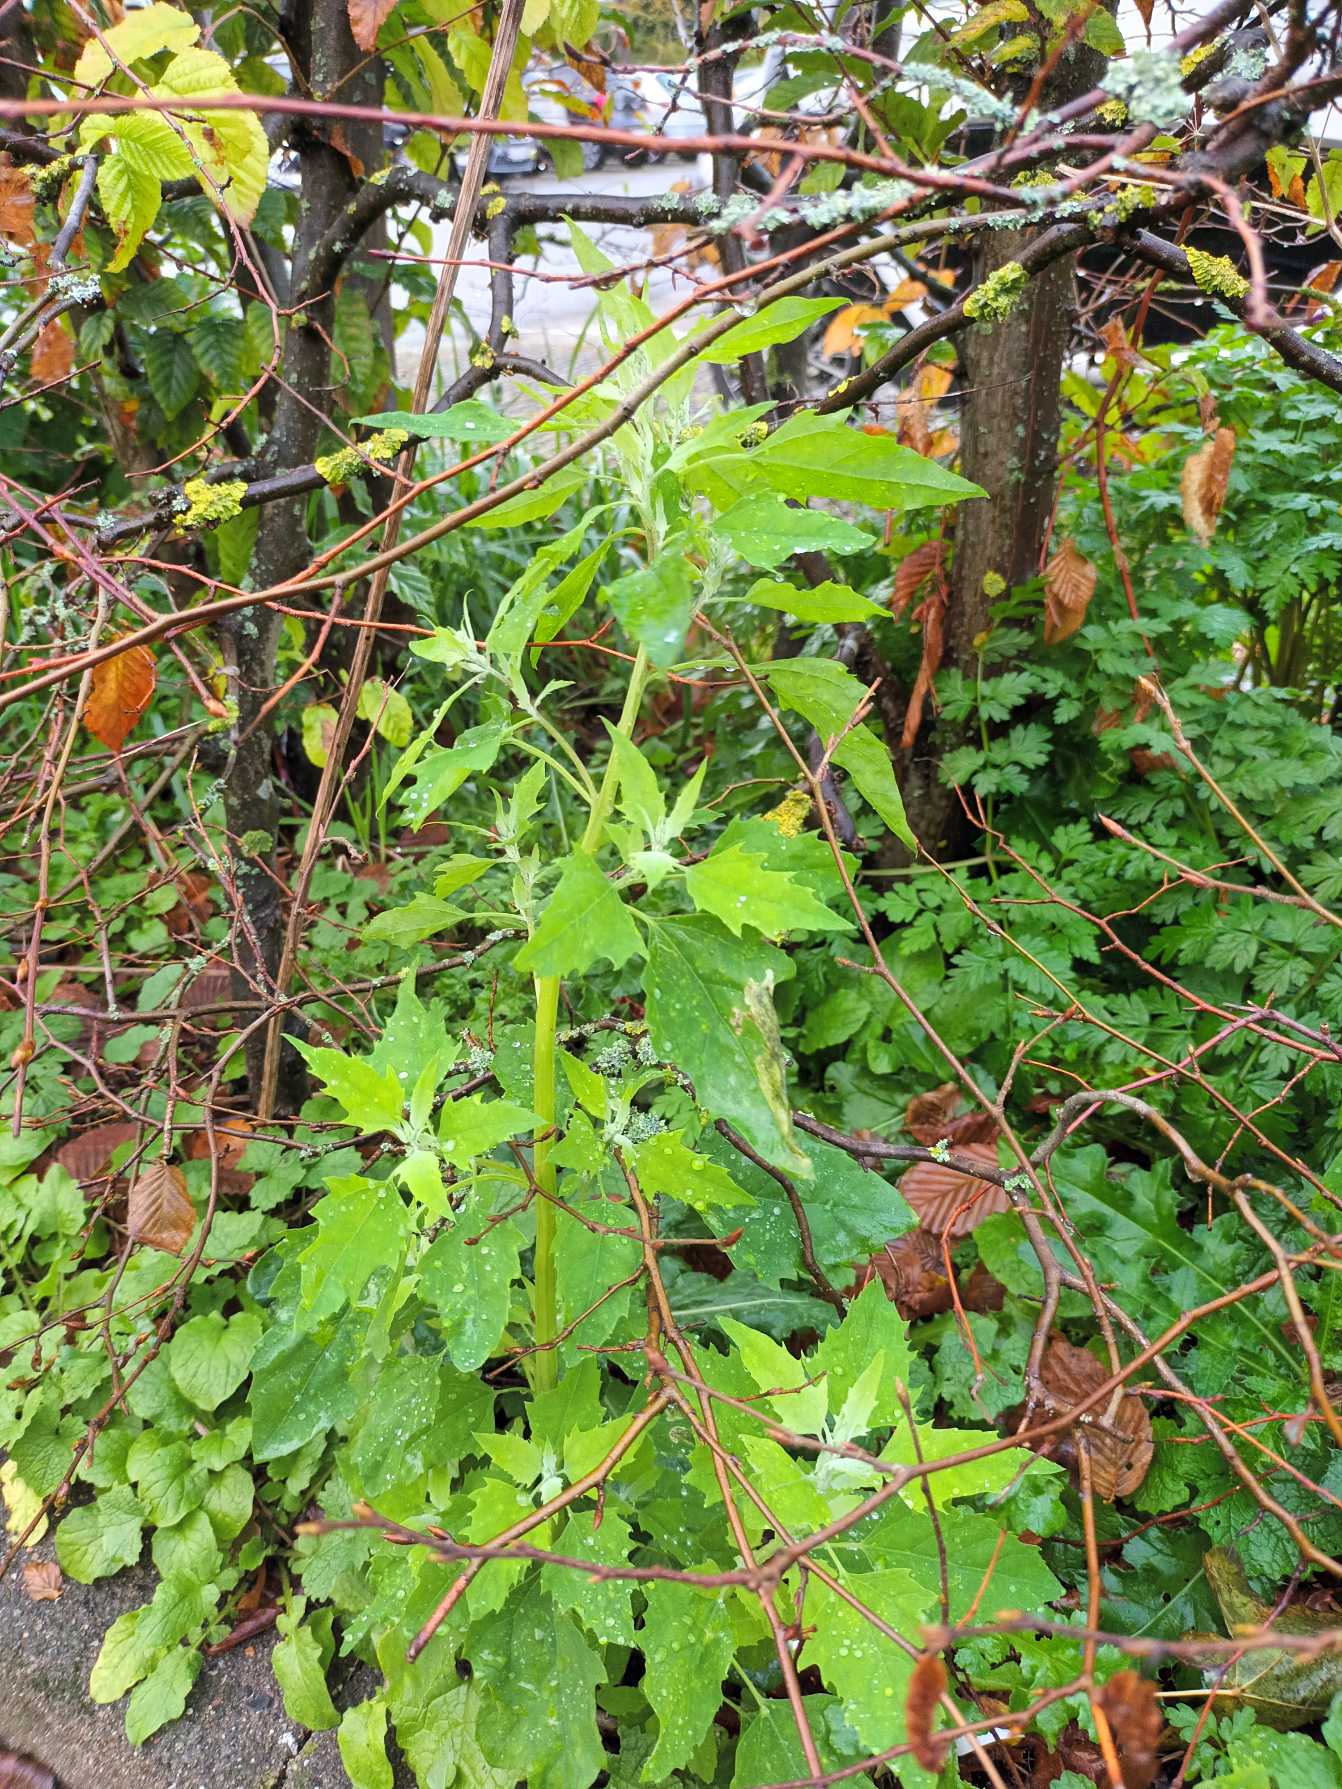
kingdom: Plantae
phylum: Tracheophyta
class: Magnoliopsida
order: Caryophyllales
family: Amaranthaceae
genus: Chenopodium
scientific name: Chenopodium album
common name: Hvidmelet gåsefod
